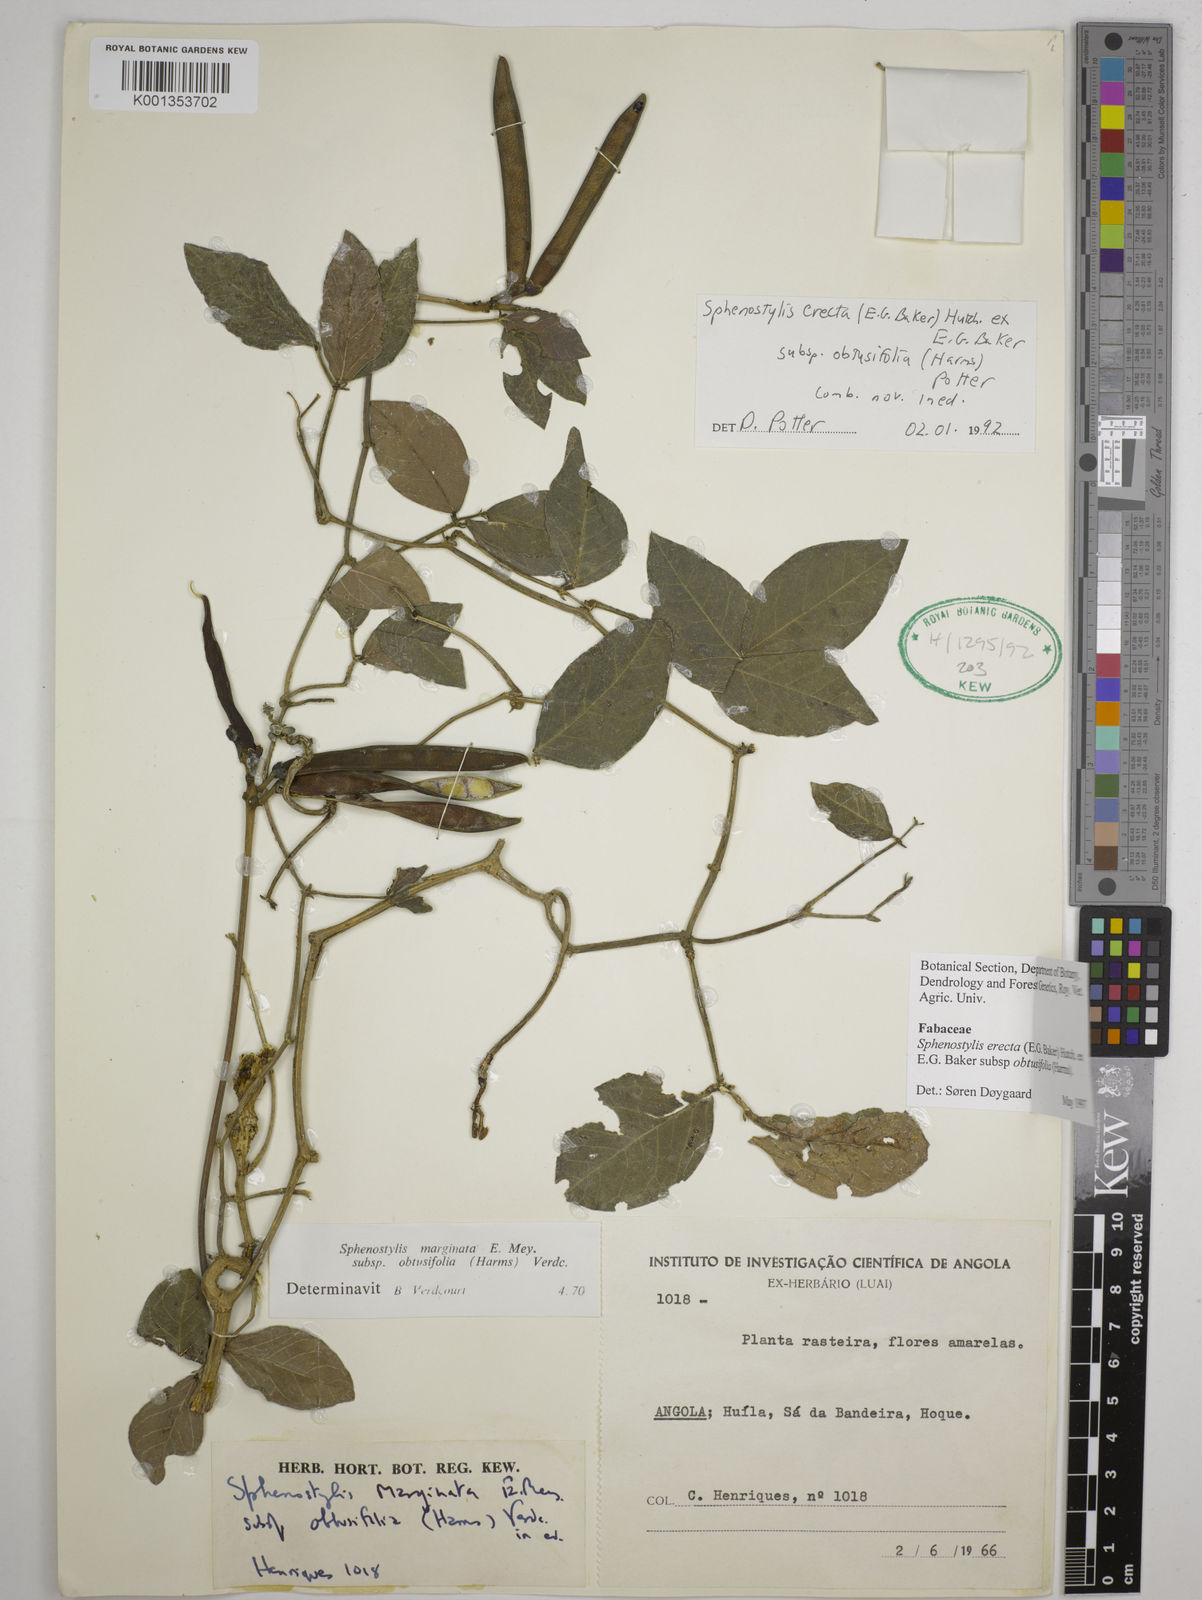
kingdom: Plantae
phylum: Tracheophyta
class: Magnoliopsida
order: Fabales
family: Fabaceae
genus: Sphenostylis
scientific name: Sphenostylis erecta
